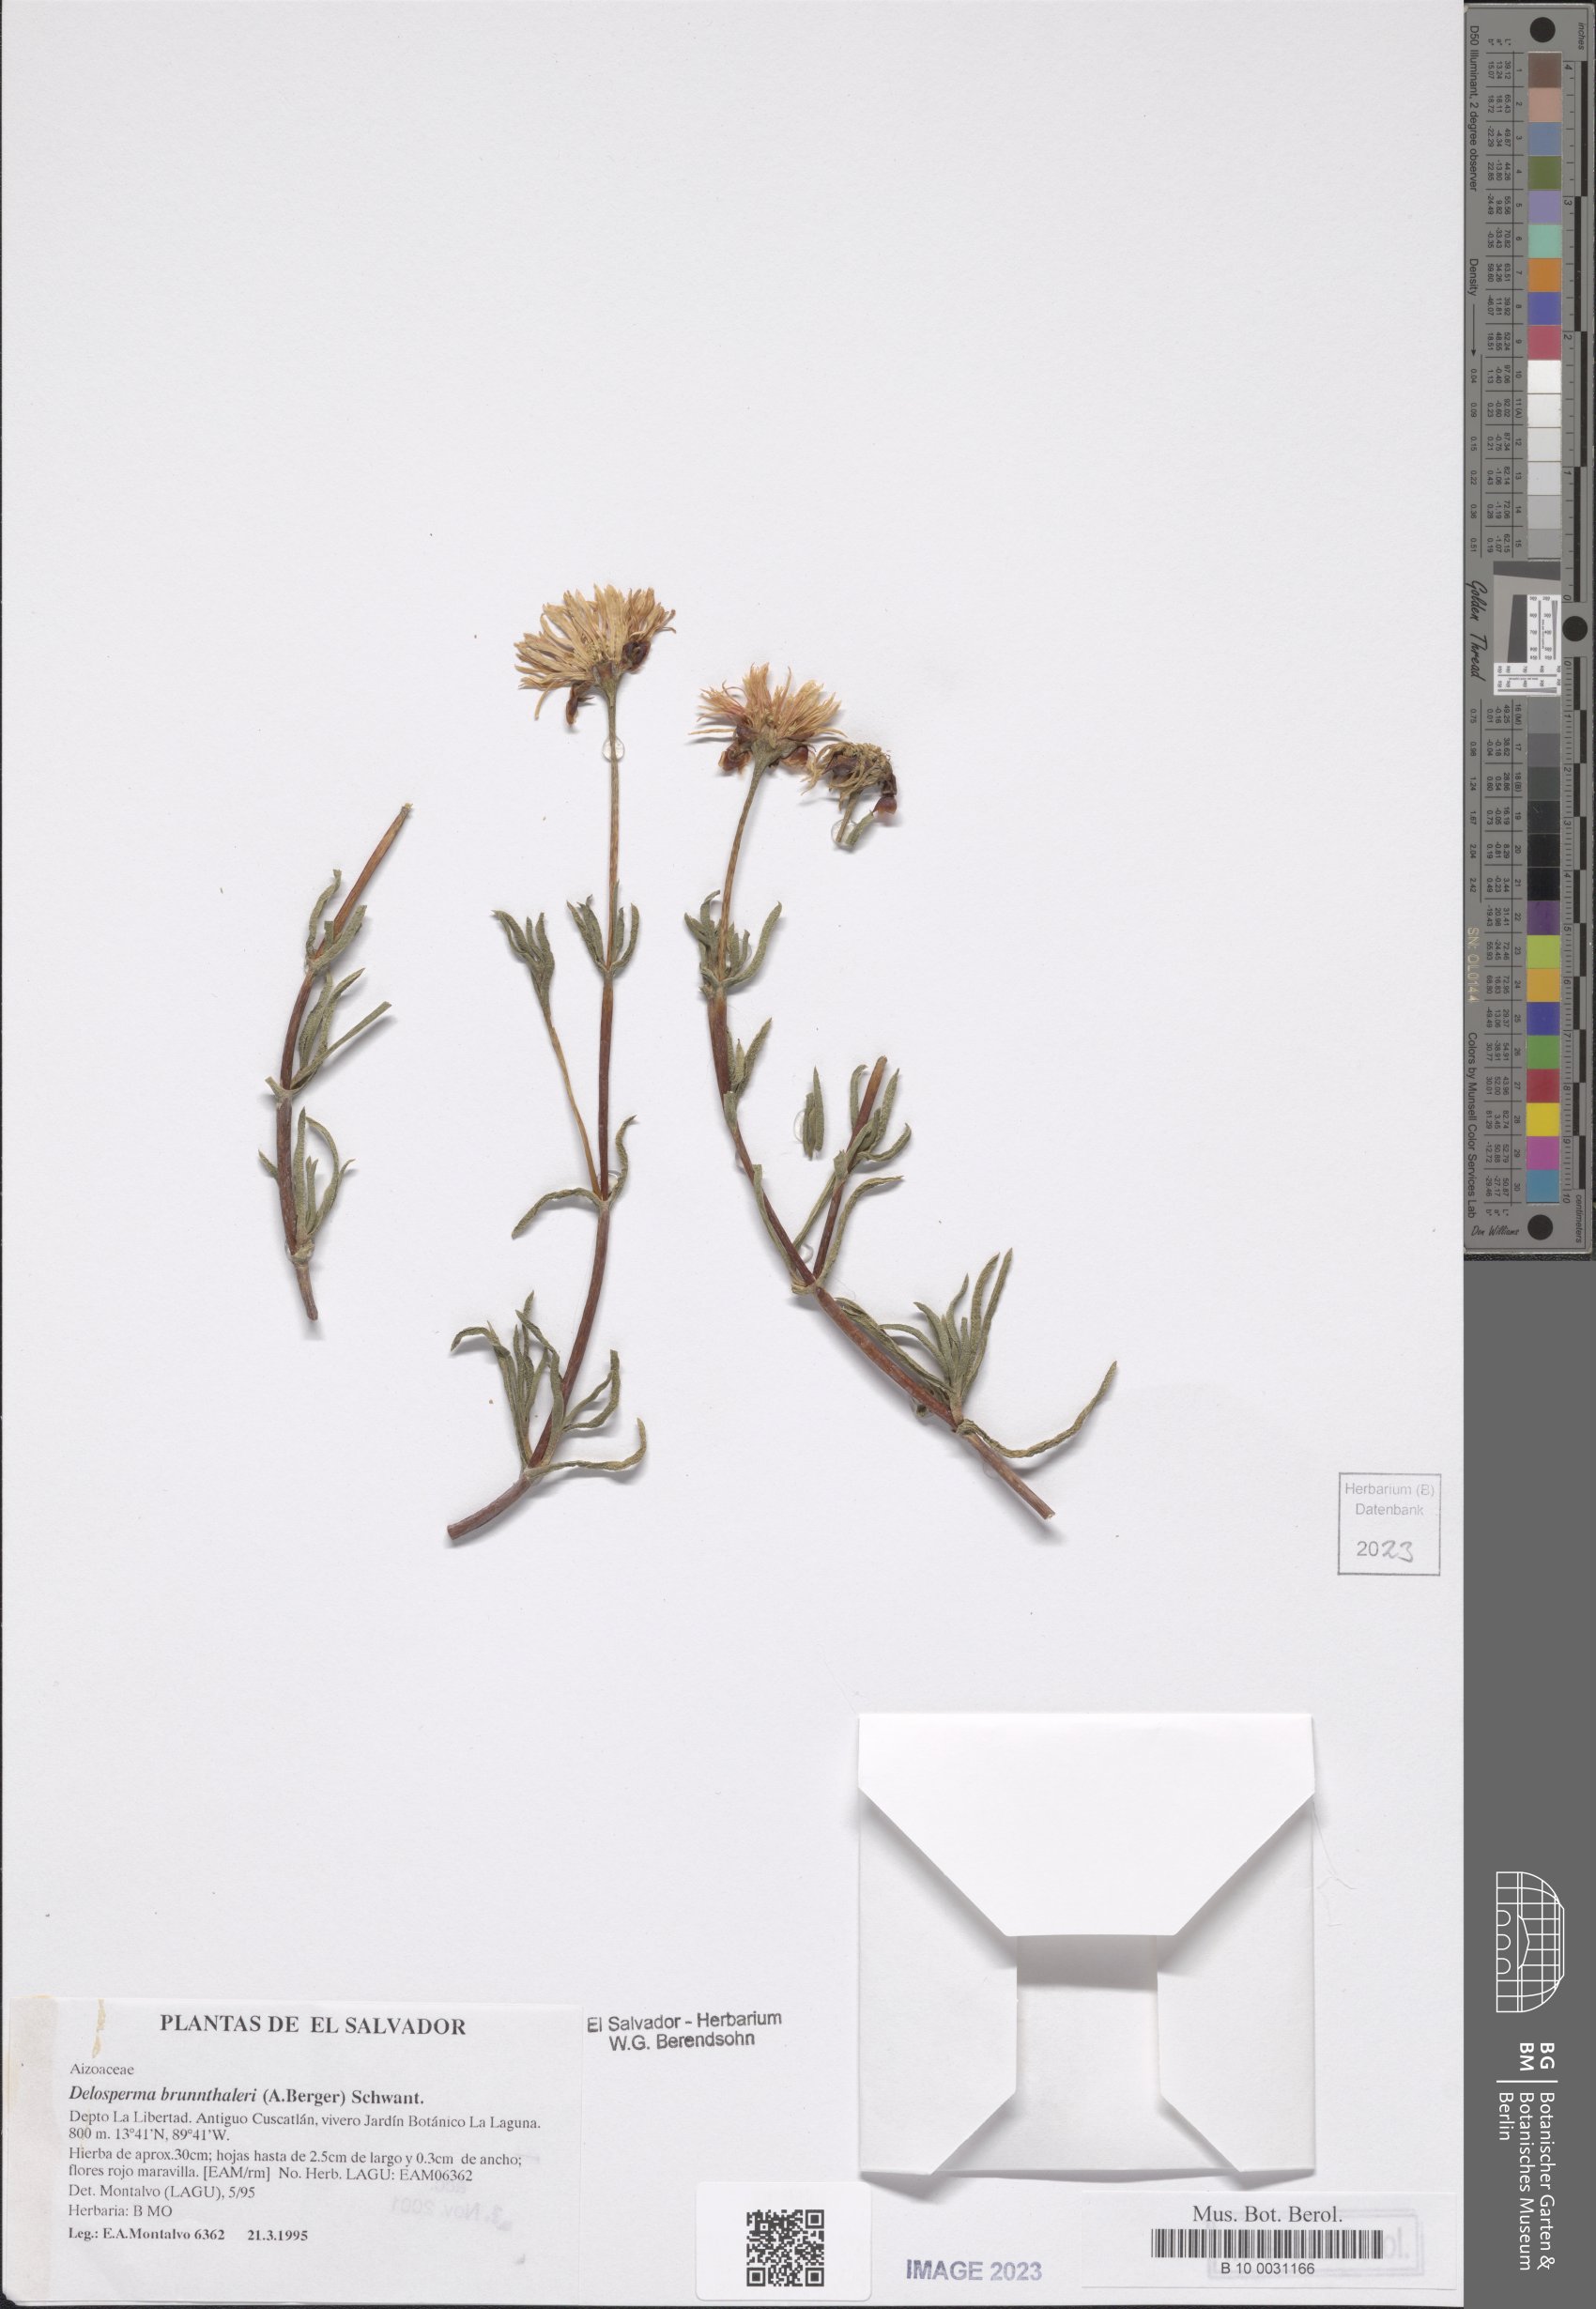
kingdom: Plantae
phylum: Tracheophyta
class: Magnoliopsida
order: Caryophyllales
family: Aizoaceae
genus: Delosperma
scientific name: Delosperma brunnthaleri
